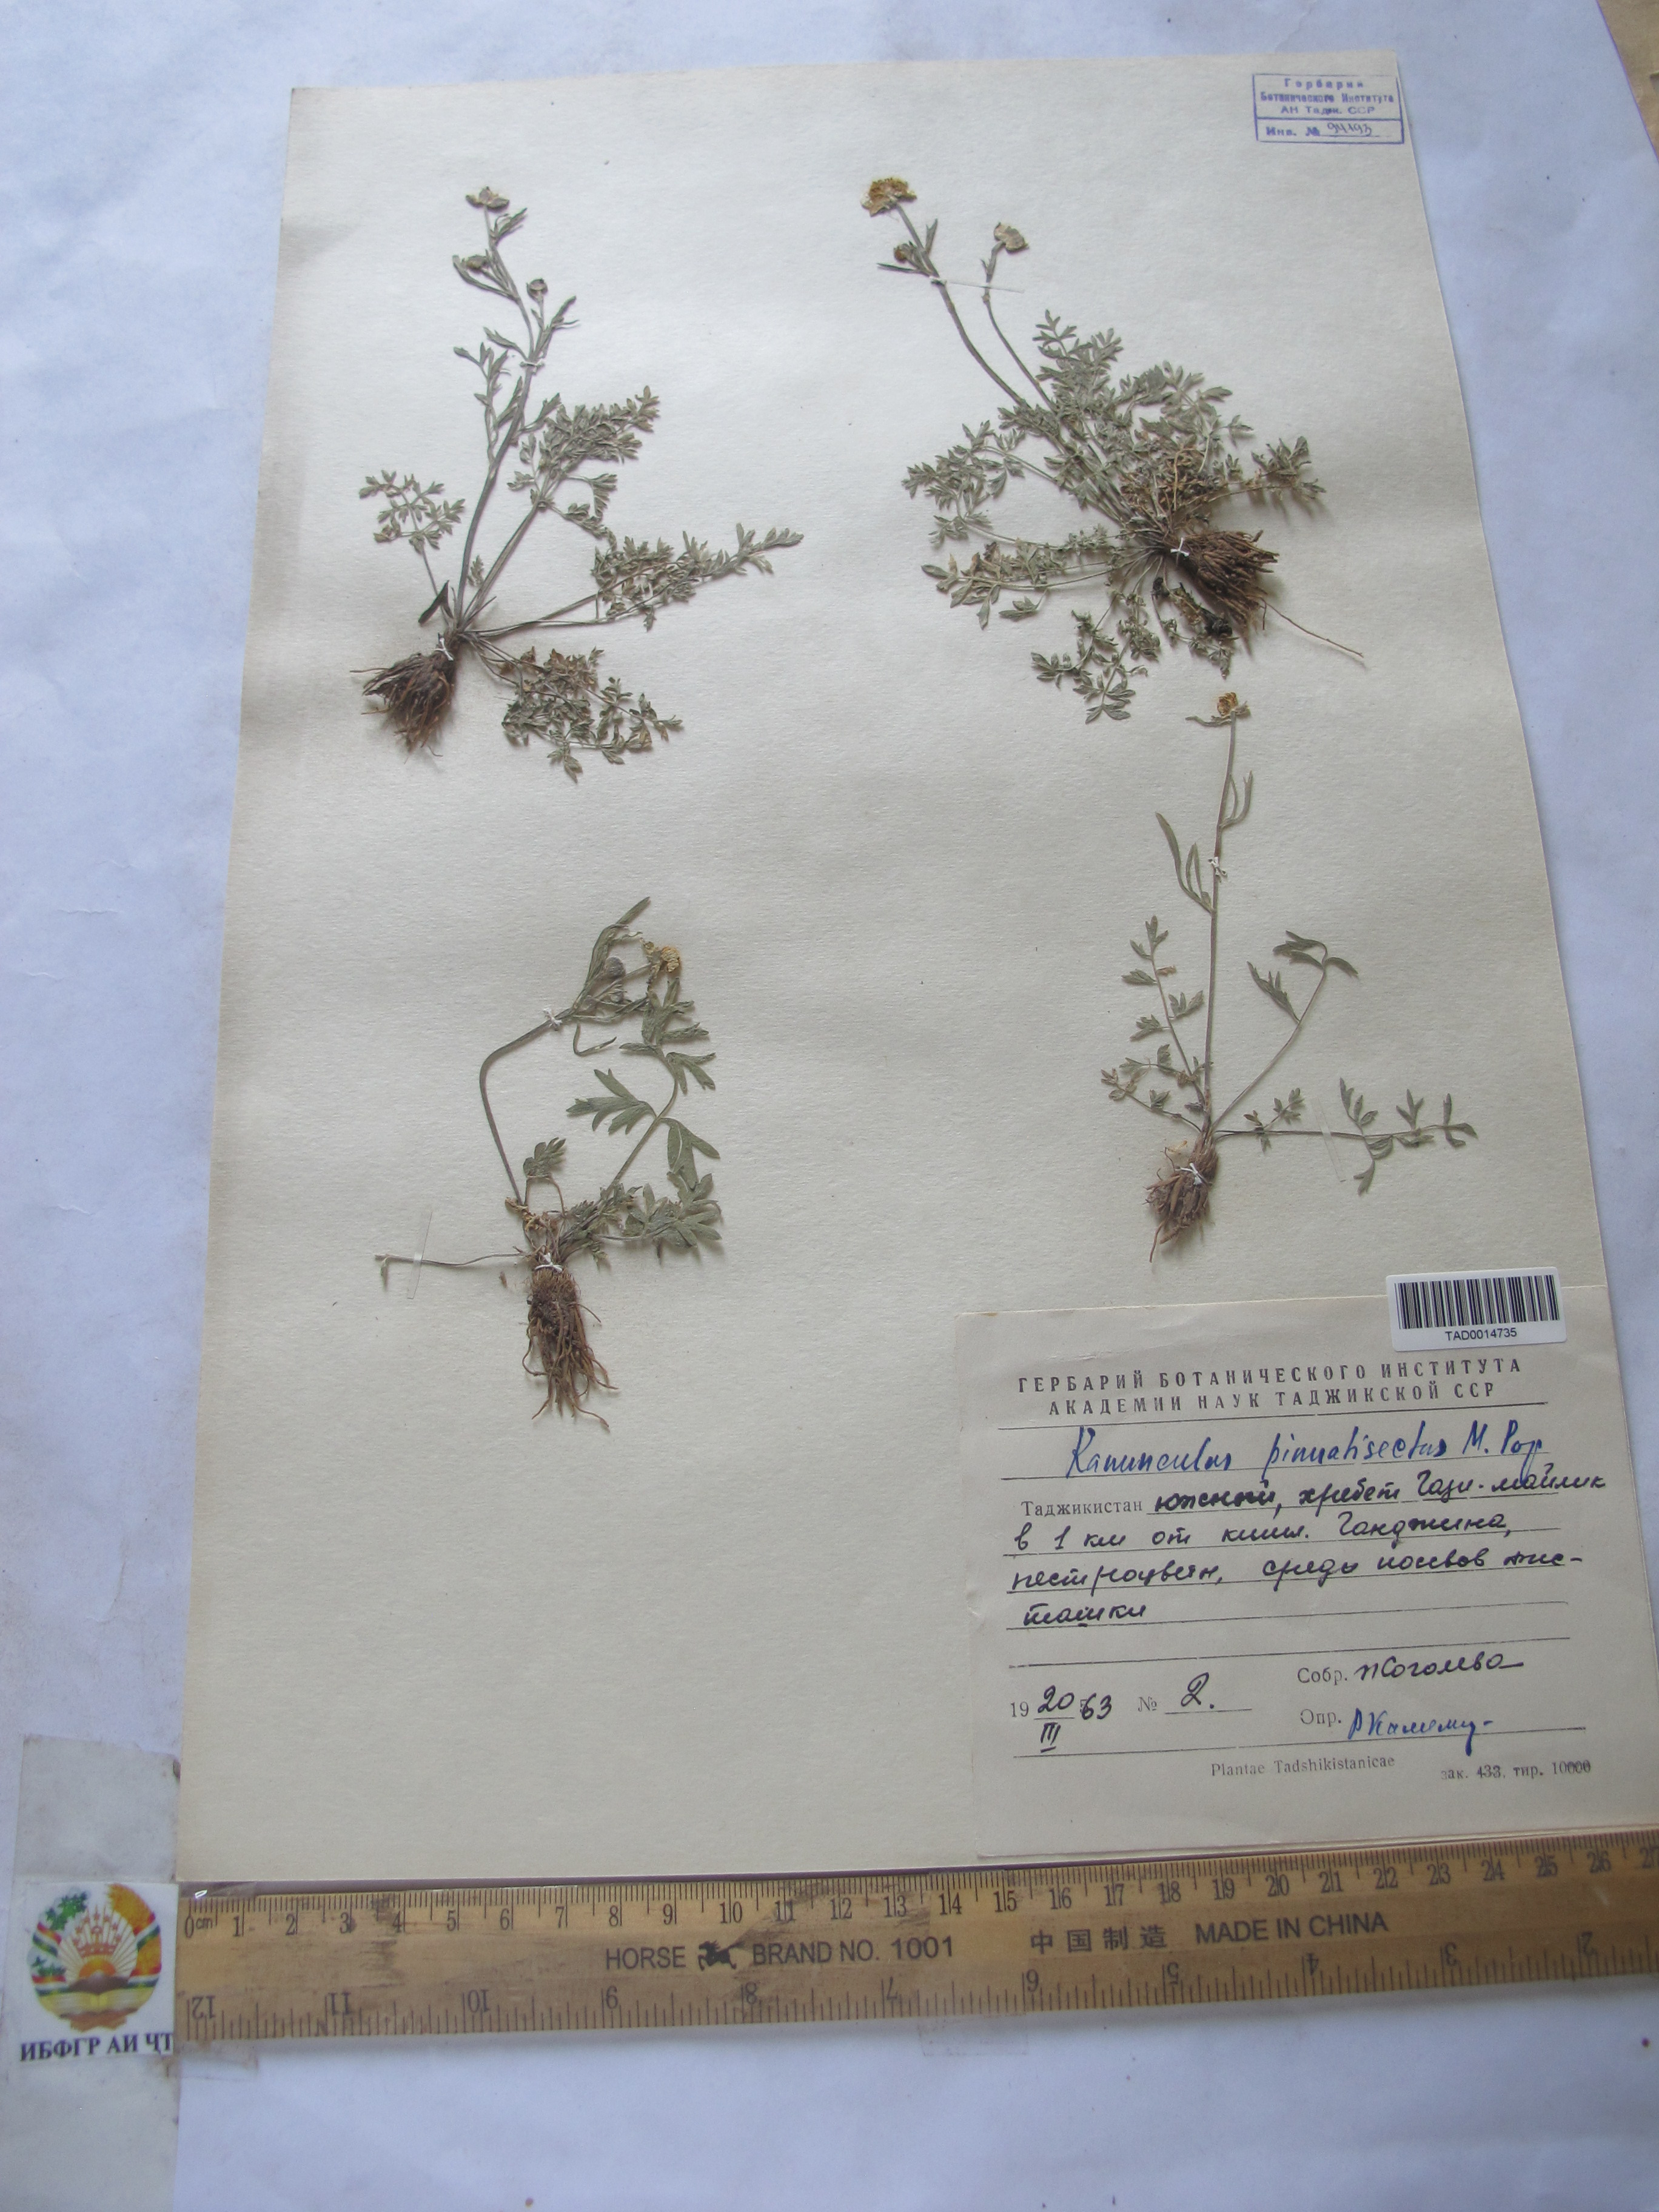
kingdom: Plantae
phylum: Tracheophyta
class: Magnoliopsida
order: Ranunculales
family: Ranunculaceae
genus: Ranunculus
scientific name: Ranunculus pinnatisectus
